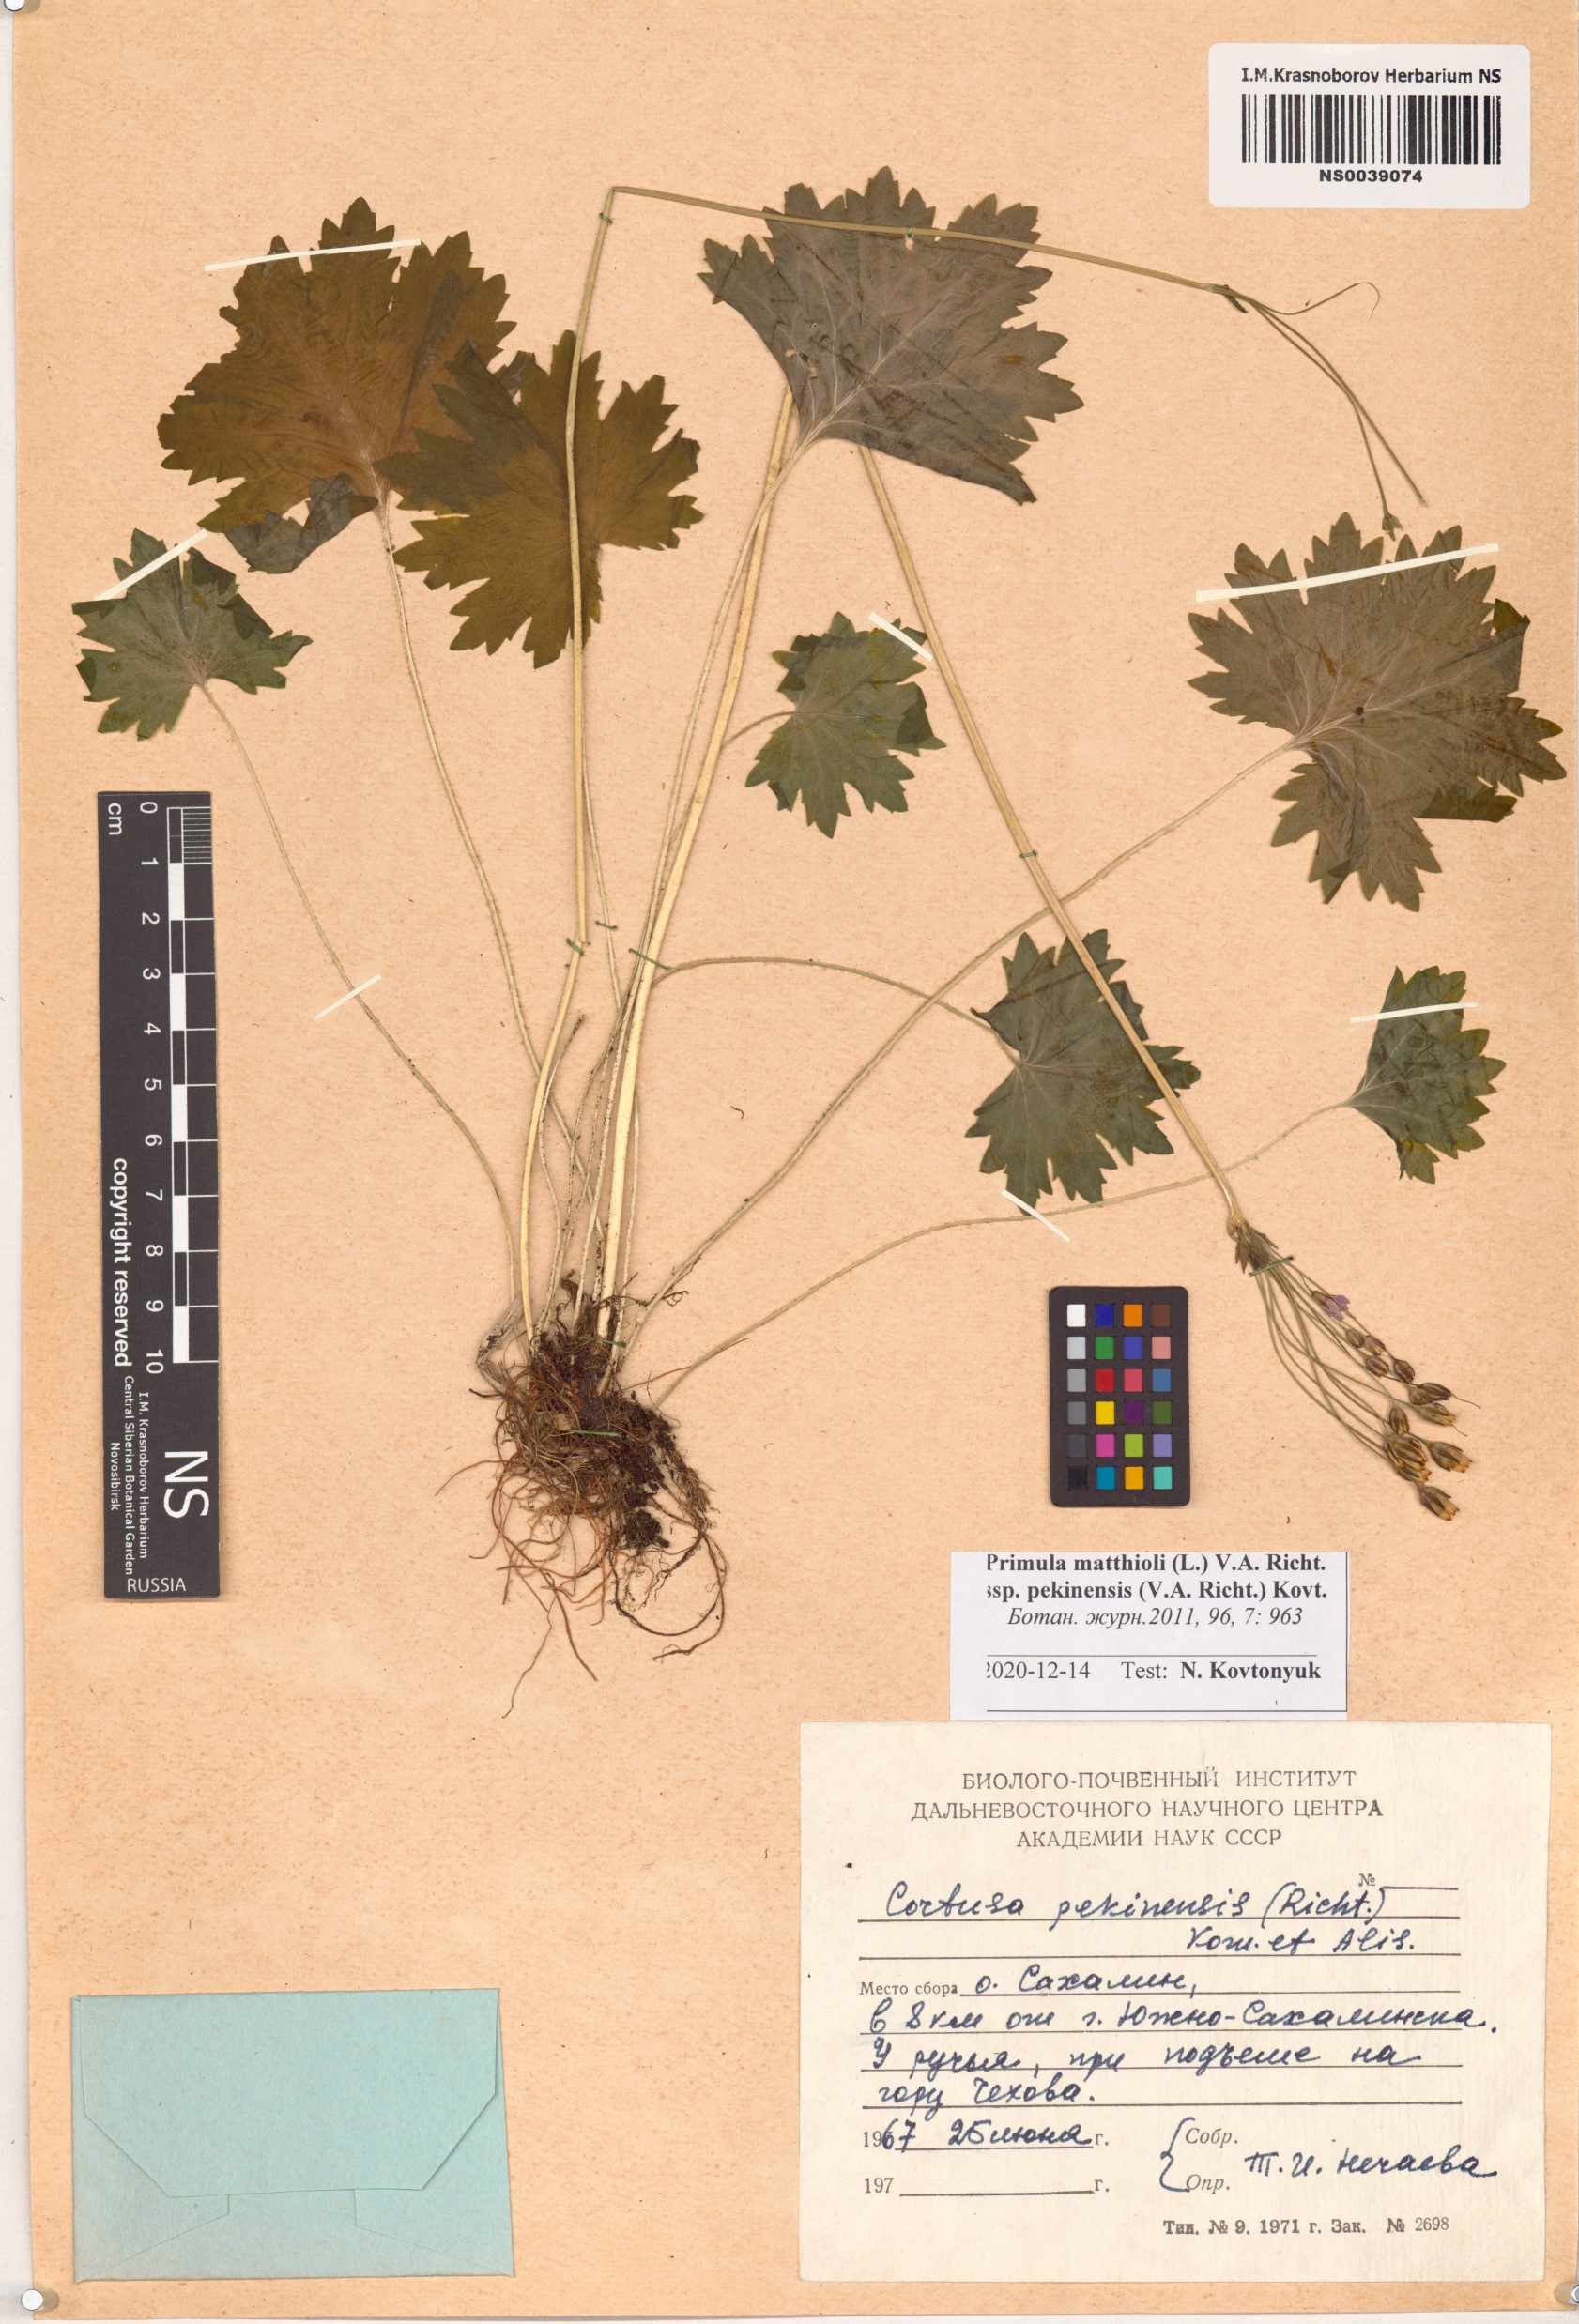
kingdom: Plantae
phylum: Tracheophyta
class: Magnoliopsida
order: Ericales
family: Primulaceae
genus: Primula
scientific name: Primula matthioli
